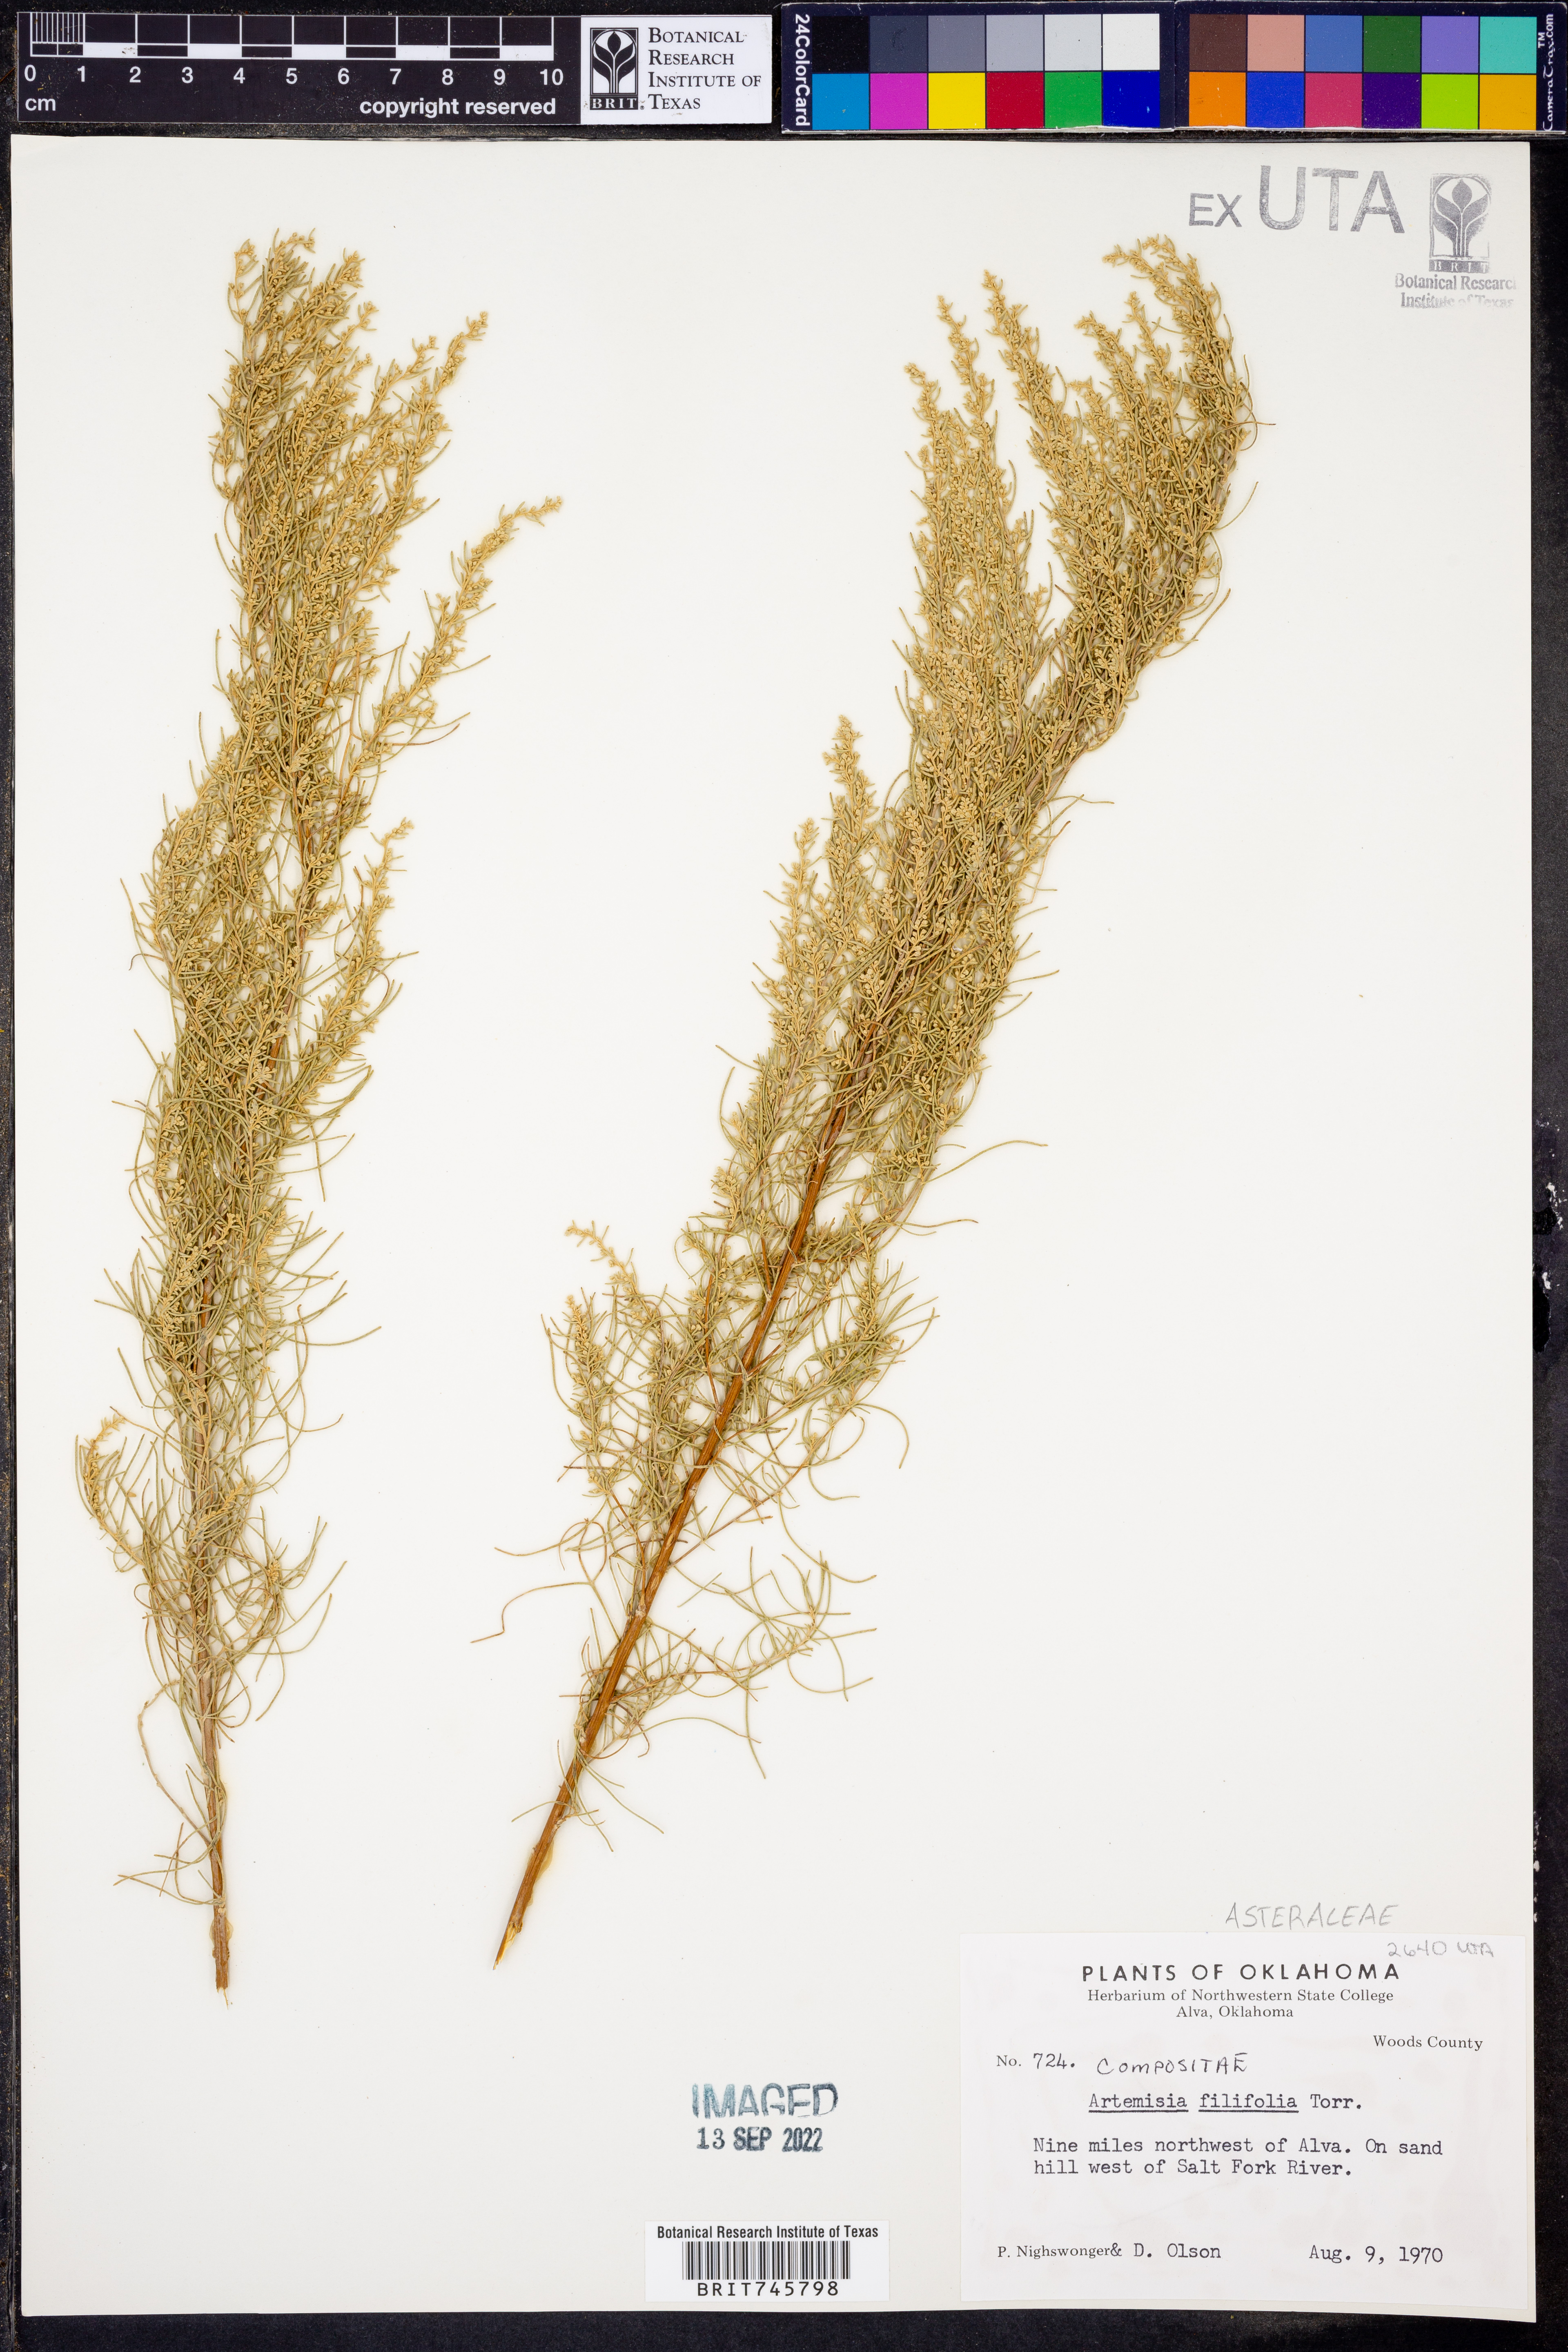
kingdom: Plantae
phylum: Tracheophyta
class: Magnoliopsida
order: Asterales
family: Asteraceae
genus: Artemisia
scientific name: Artemisia filifolia
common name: Sand-sage
